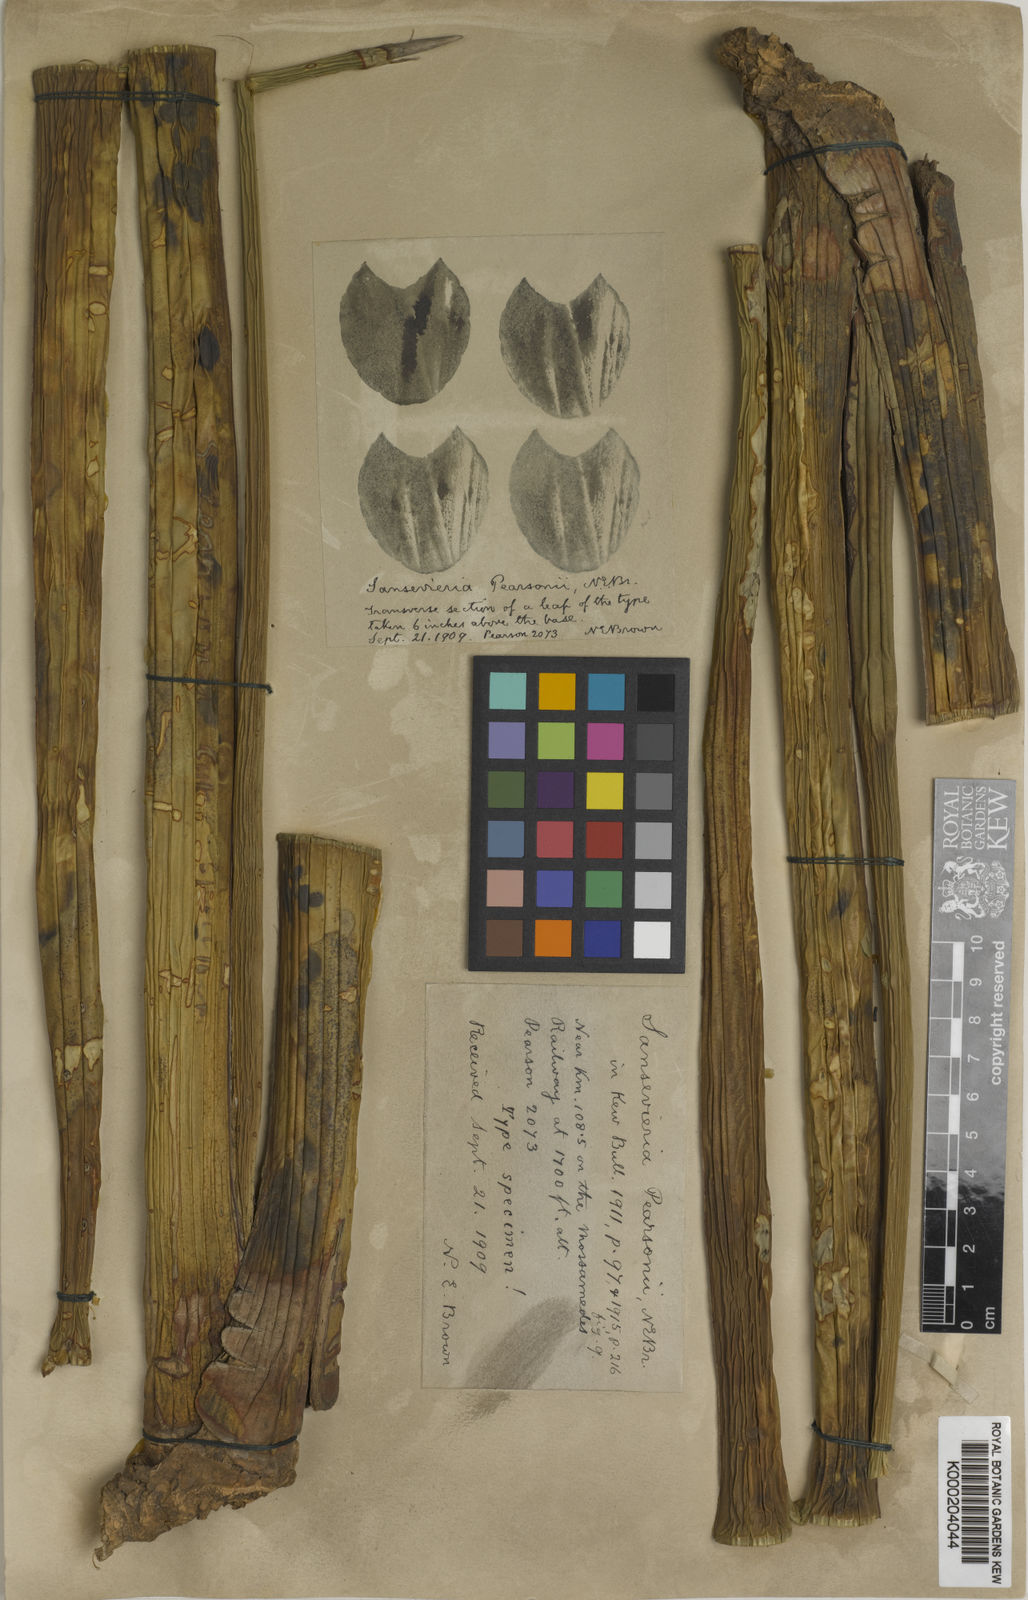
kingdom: Plantae
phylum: Tracheophyta
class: Liliopsida
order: Asparagales
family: Asparagaceae
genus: Dracaena
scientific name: Dracaena pearsonii
